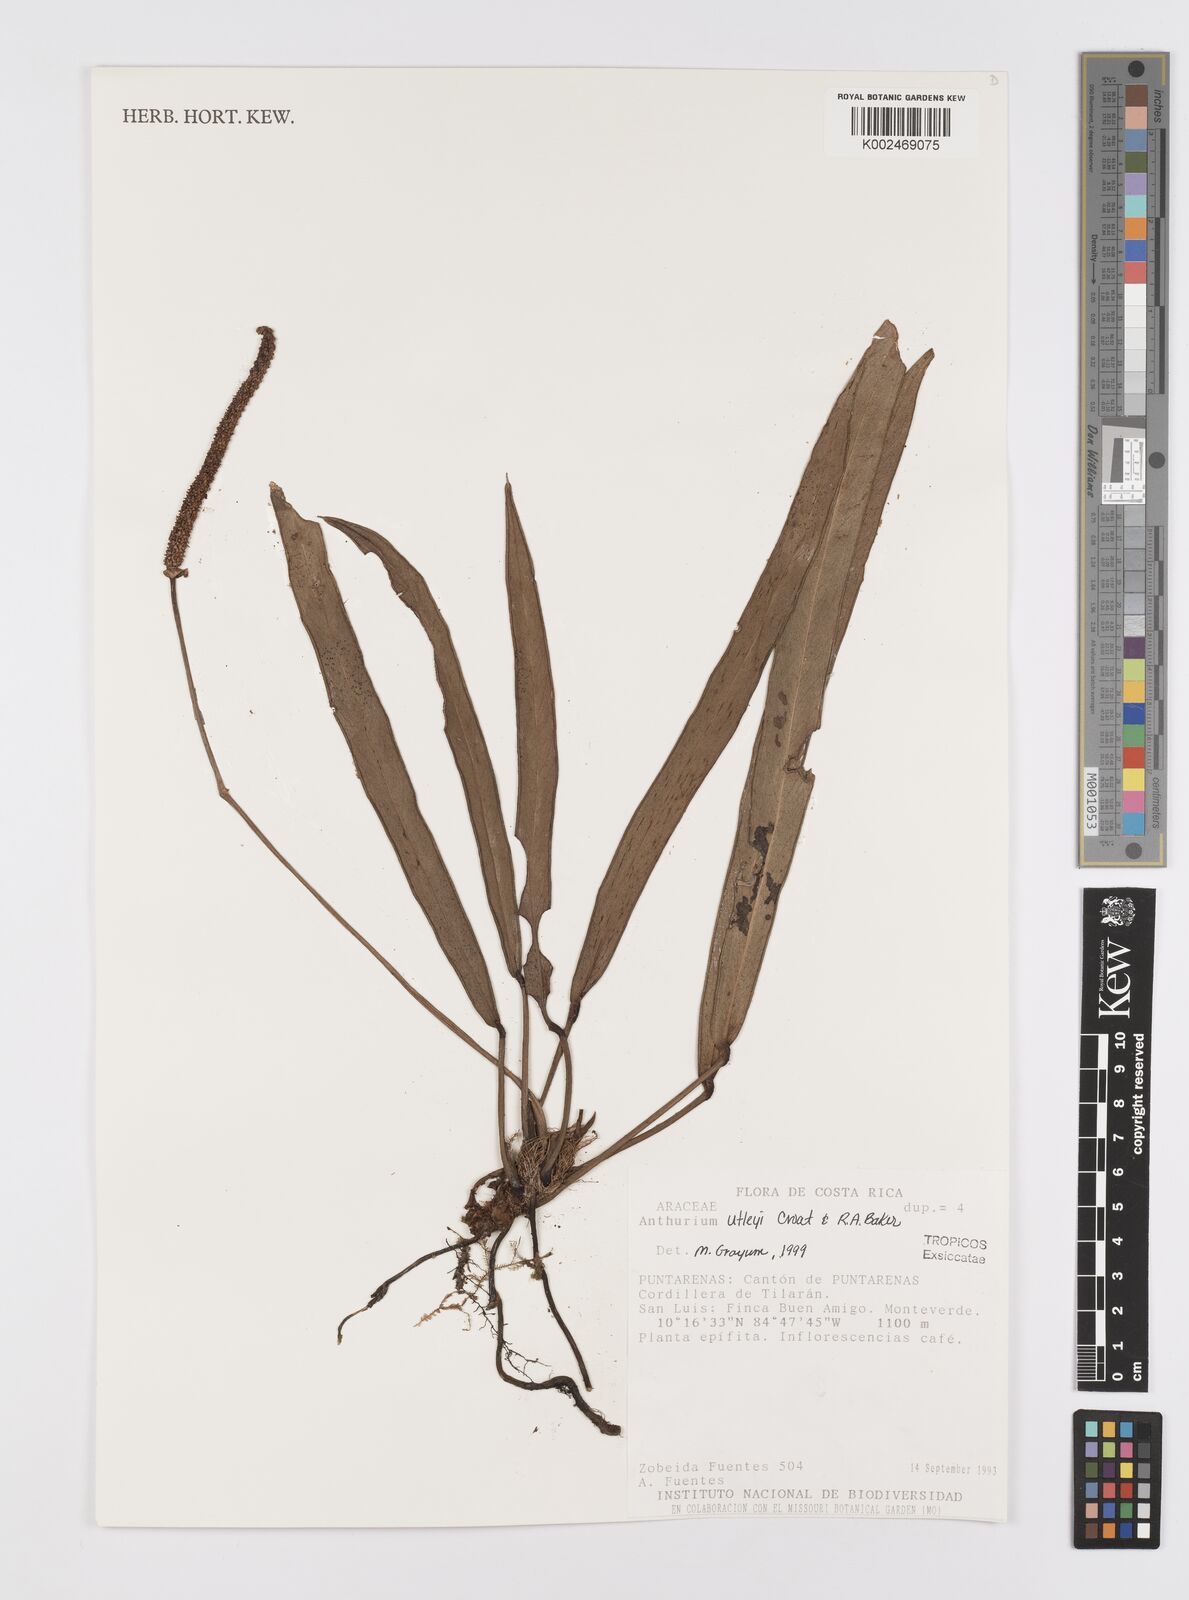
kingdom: Plantae
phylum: Tracheophyta
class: Liliopsida
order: Alismatales
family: Araceae
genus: Anthurium
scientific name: Anthurium utleyorum
